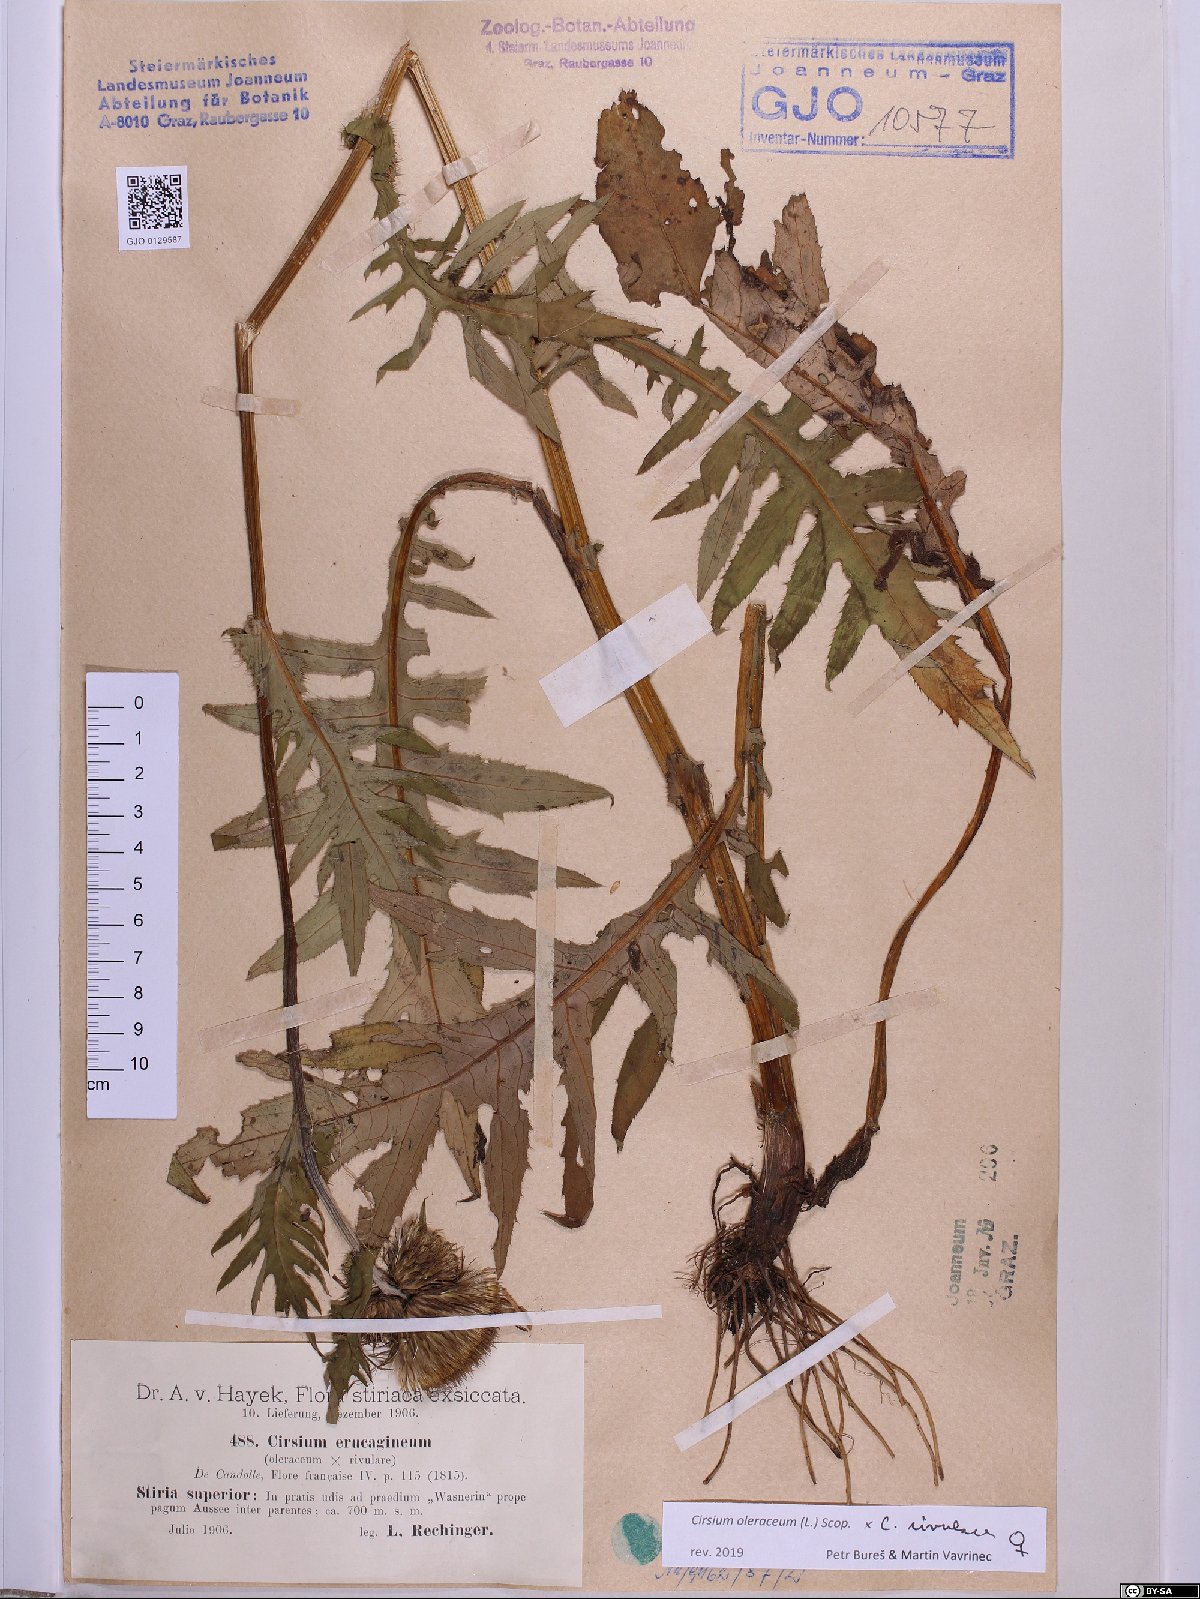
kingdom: Plantae
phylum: Tracheophyta
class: Magnoliopsida
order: Asterales
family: Asteraceae
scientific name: Asteraceae
